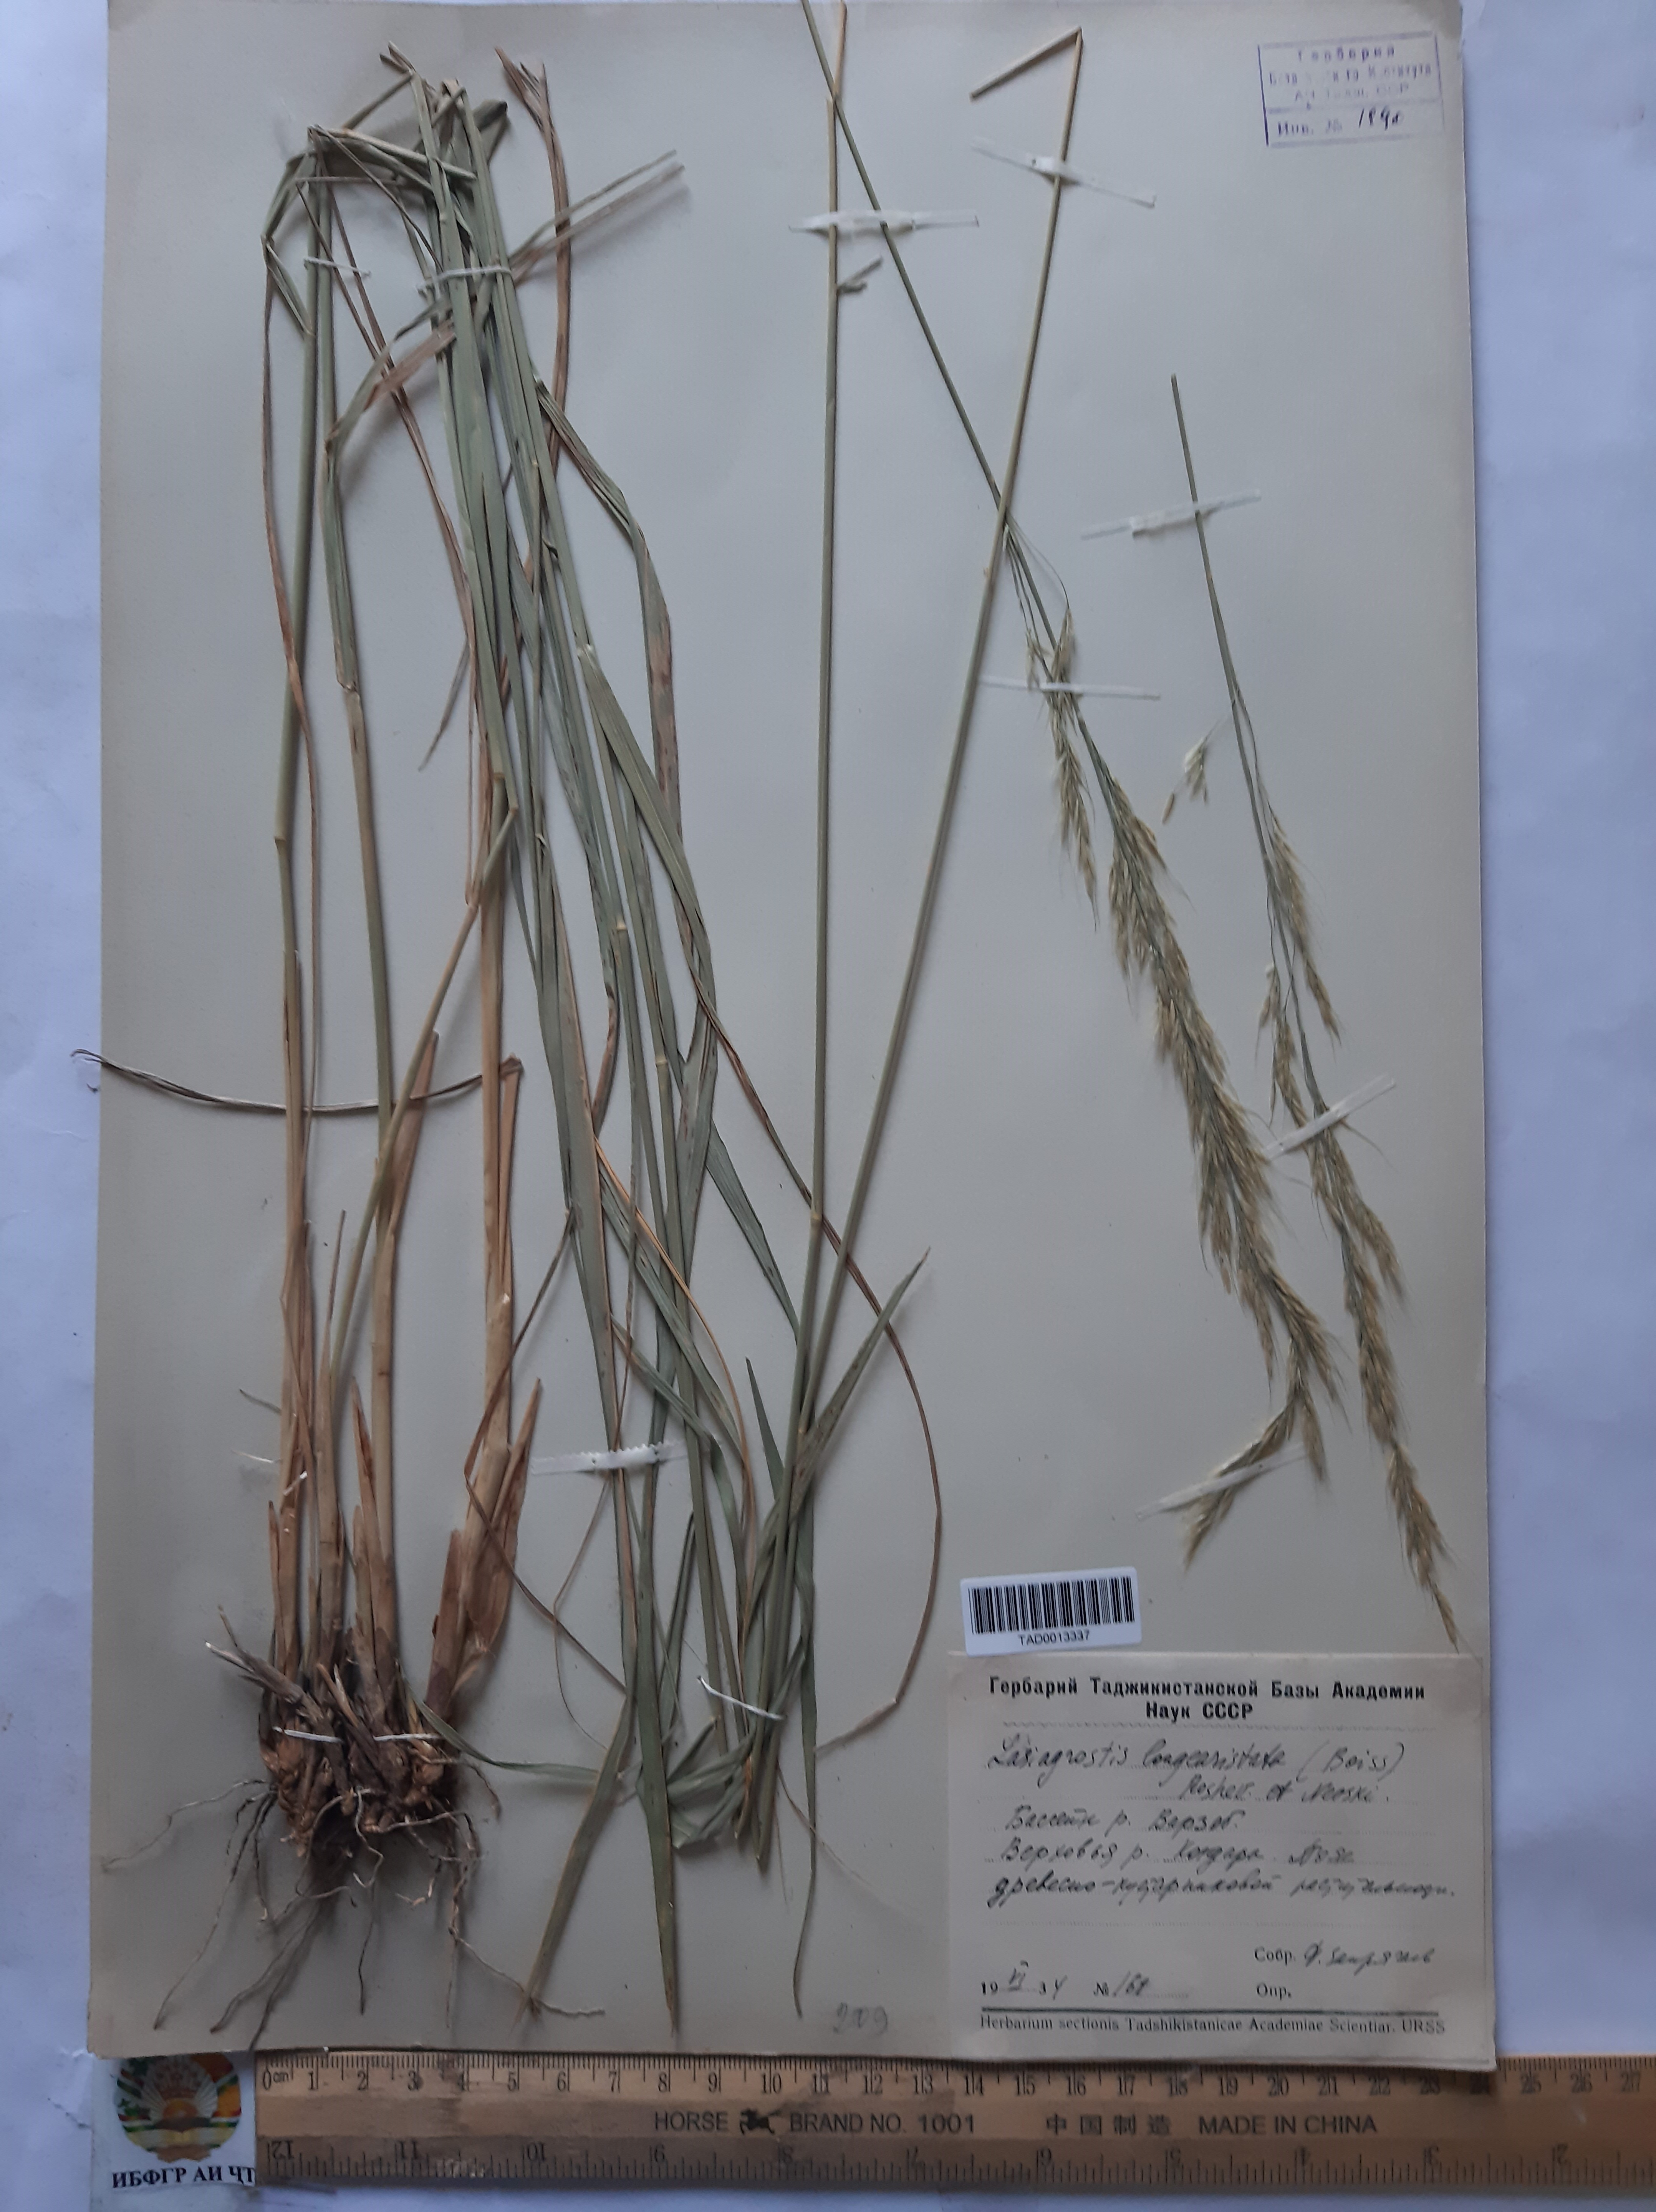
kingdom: Plantae
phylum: Tracheophyta
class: Liliopsida
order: Poales
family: Poaceae
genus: Achnatherum
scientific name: Achnatherum turcomanicum
